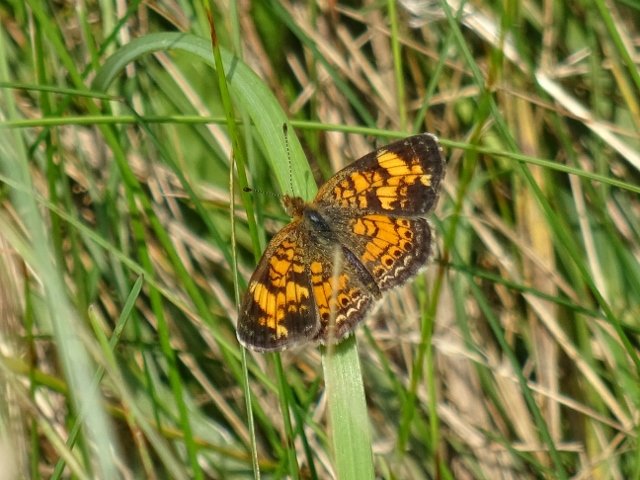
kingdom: Animalia
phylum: Arthropoda
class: Insecta
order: Lepidoptera
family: Nymphalidae
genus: Phyciodes
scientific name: Phyciodes tharos
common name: Pearl Crescent
